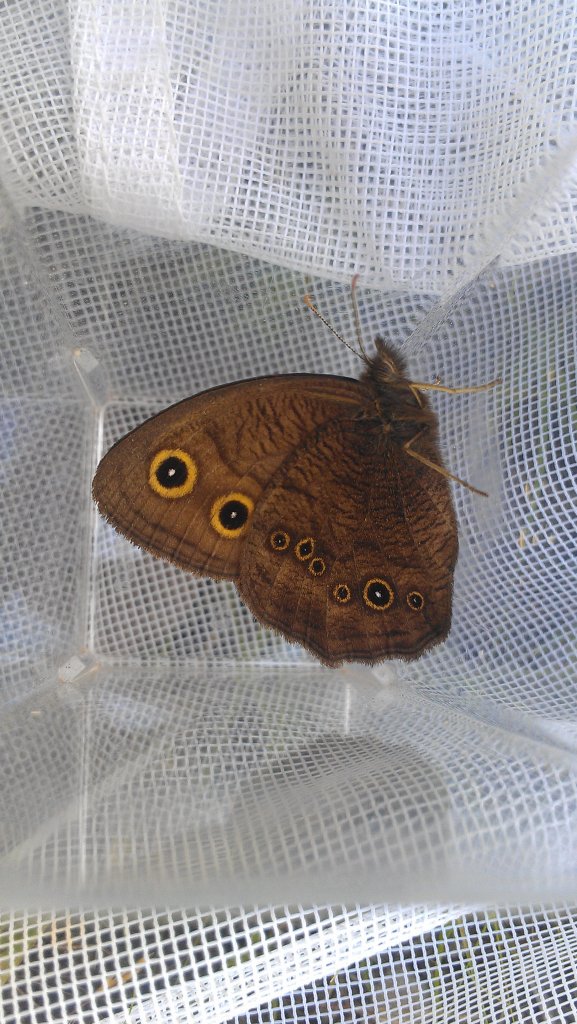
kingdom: Animalia
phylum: Arthropoda
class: Insecta
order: Lepidoptera
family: Nymphalidae
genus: Cercyonis
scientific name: Cercyonis pegala
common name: Common Wood-Nymph
